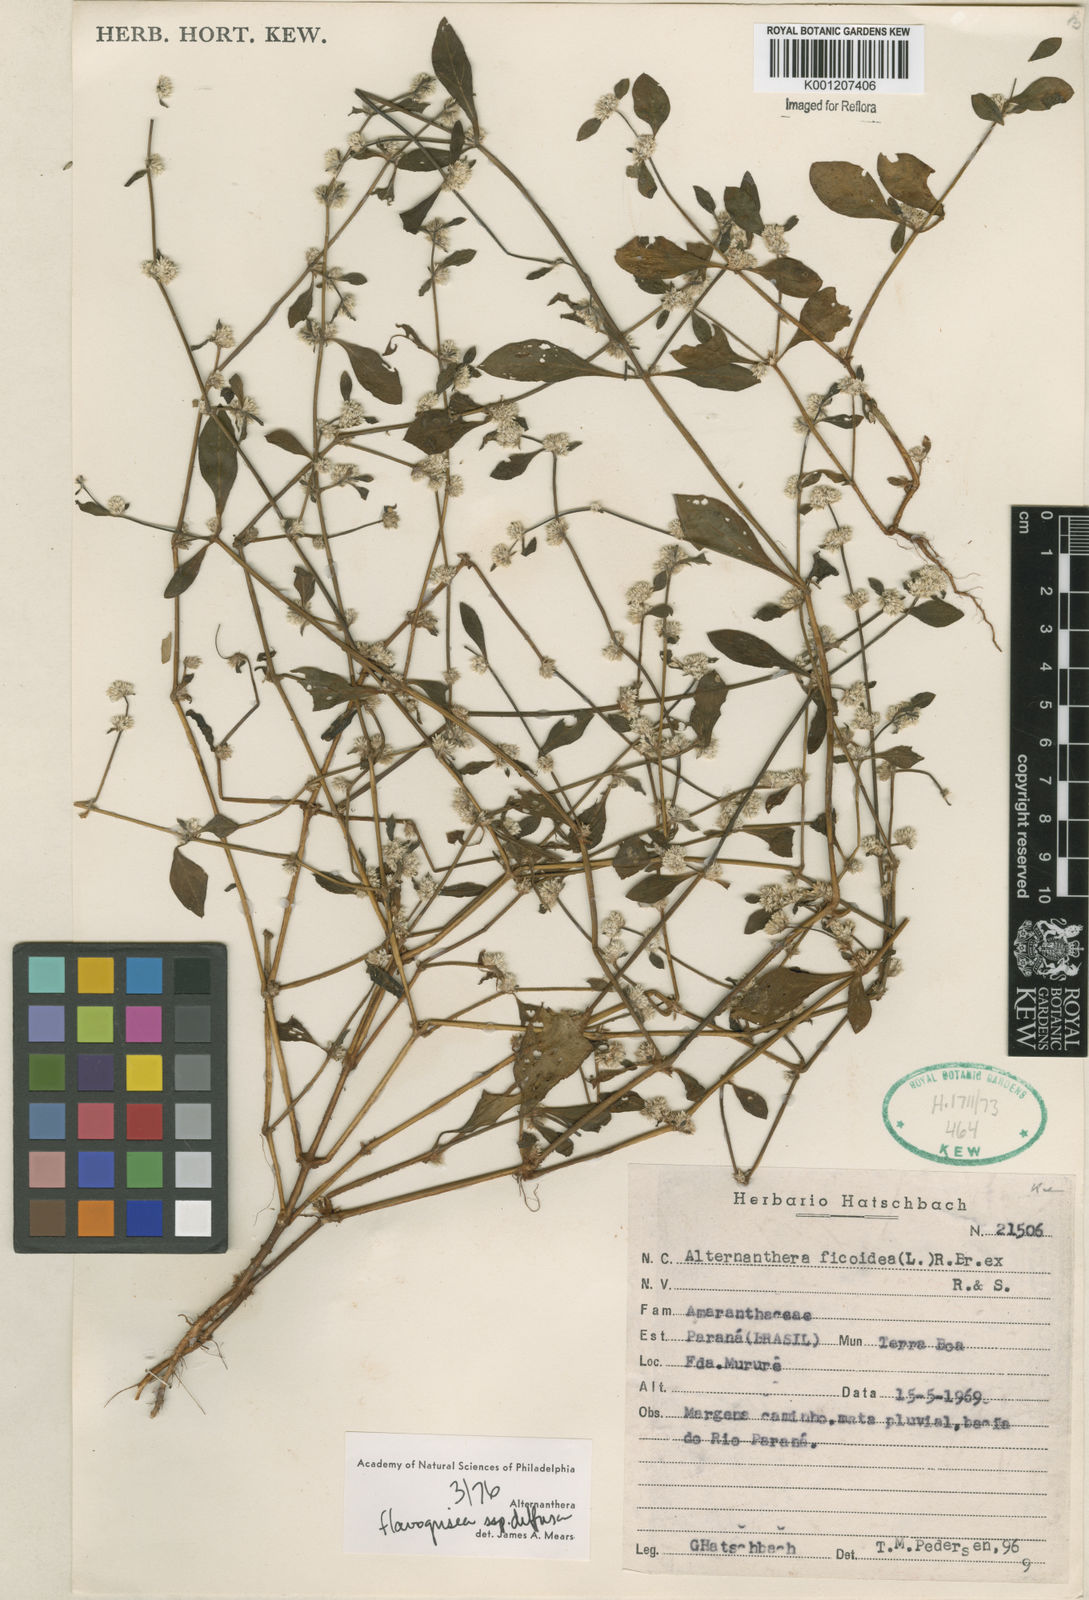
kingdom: Plantae
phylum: Tracheophyta
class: Magnoliopsida
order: Caryophyllales
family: Amaranthaceae
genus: Alternanthera
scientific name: Alternanthera halimifolia
